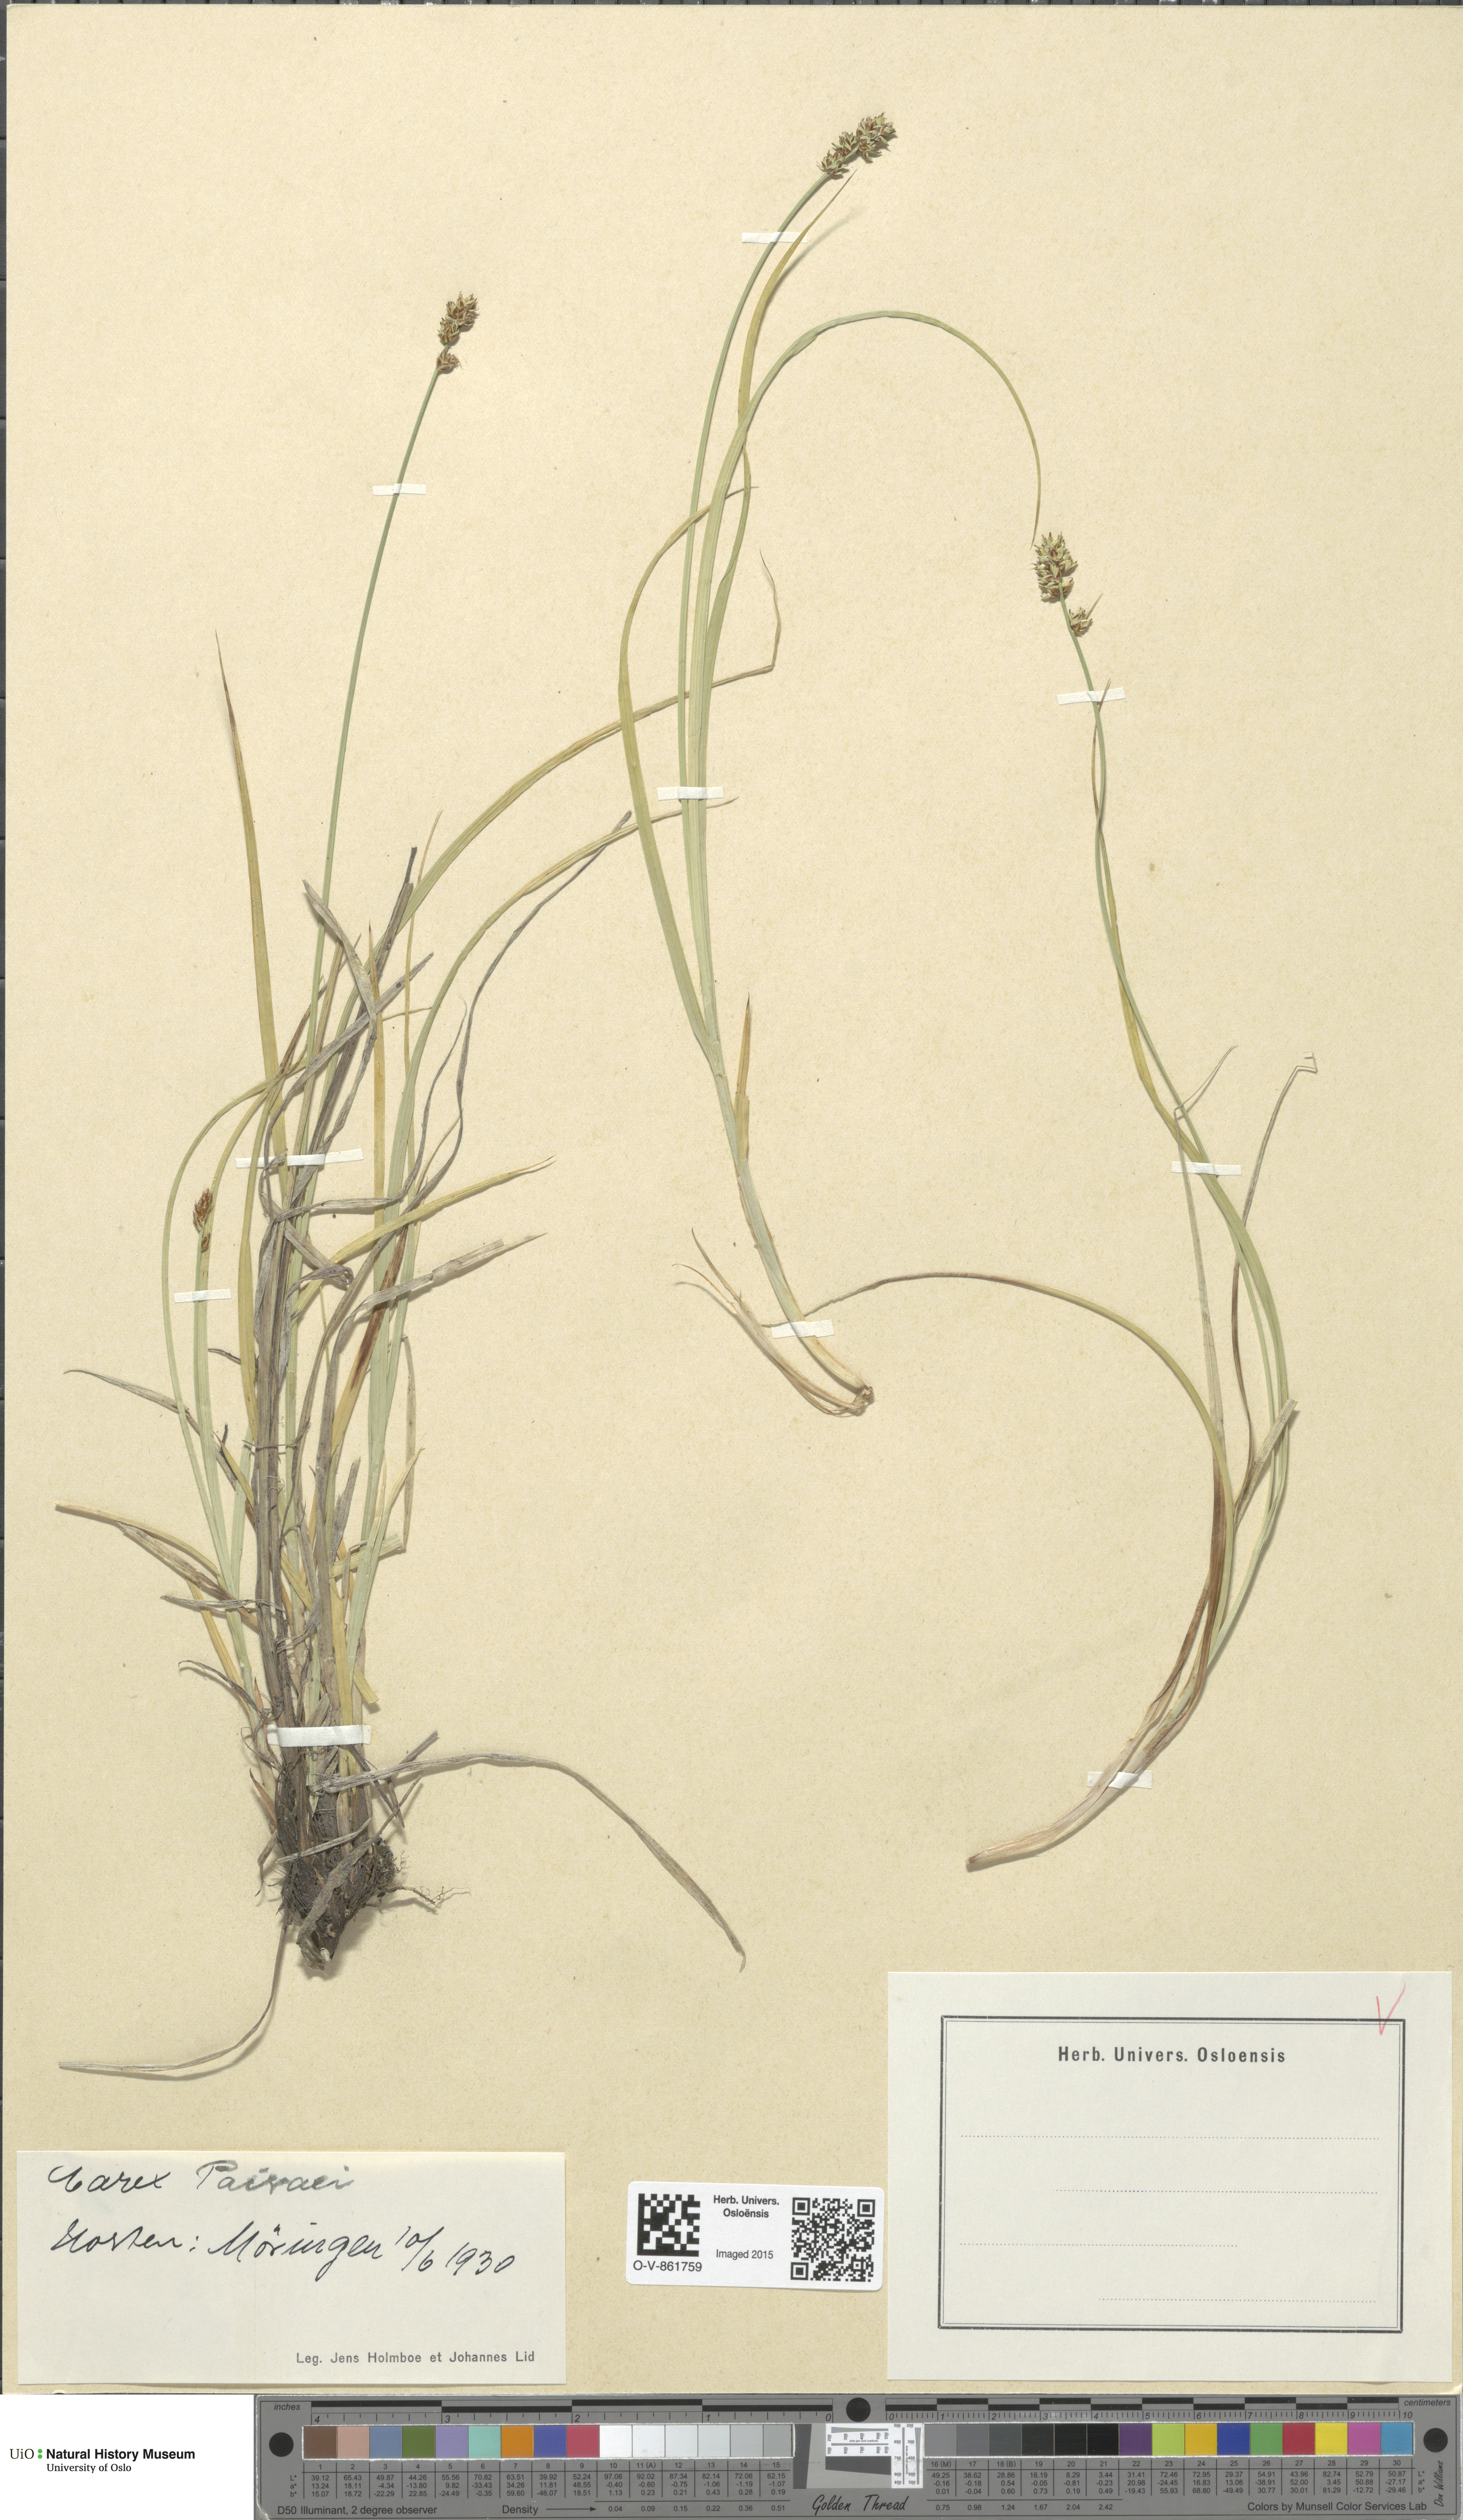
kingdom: Plantae
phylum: Tracheophyta
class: Liliopsida
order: Poales
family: Cyperaceae
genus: Carex
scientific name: Carex pairae
